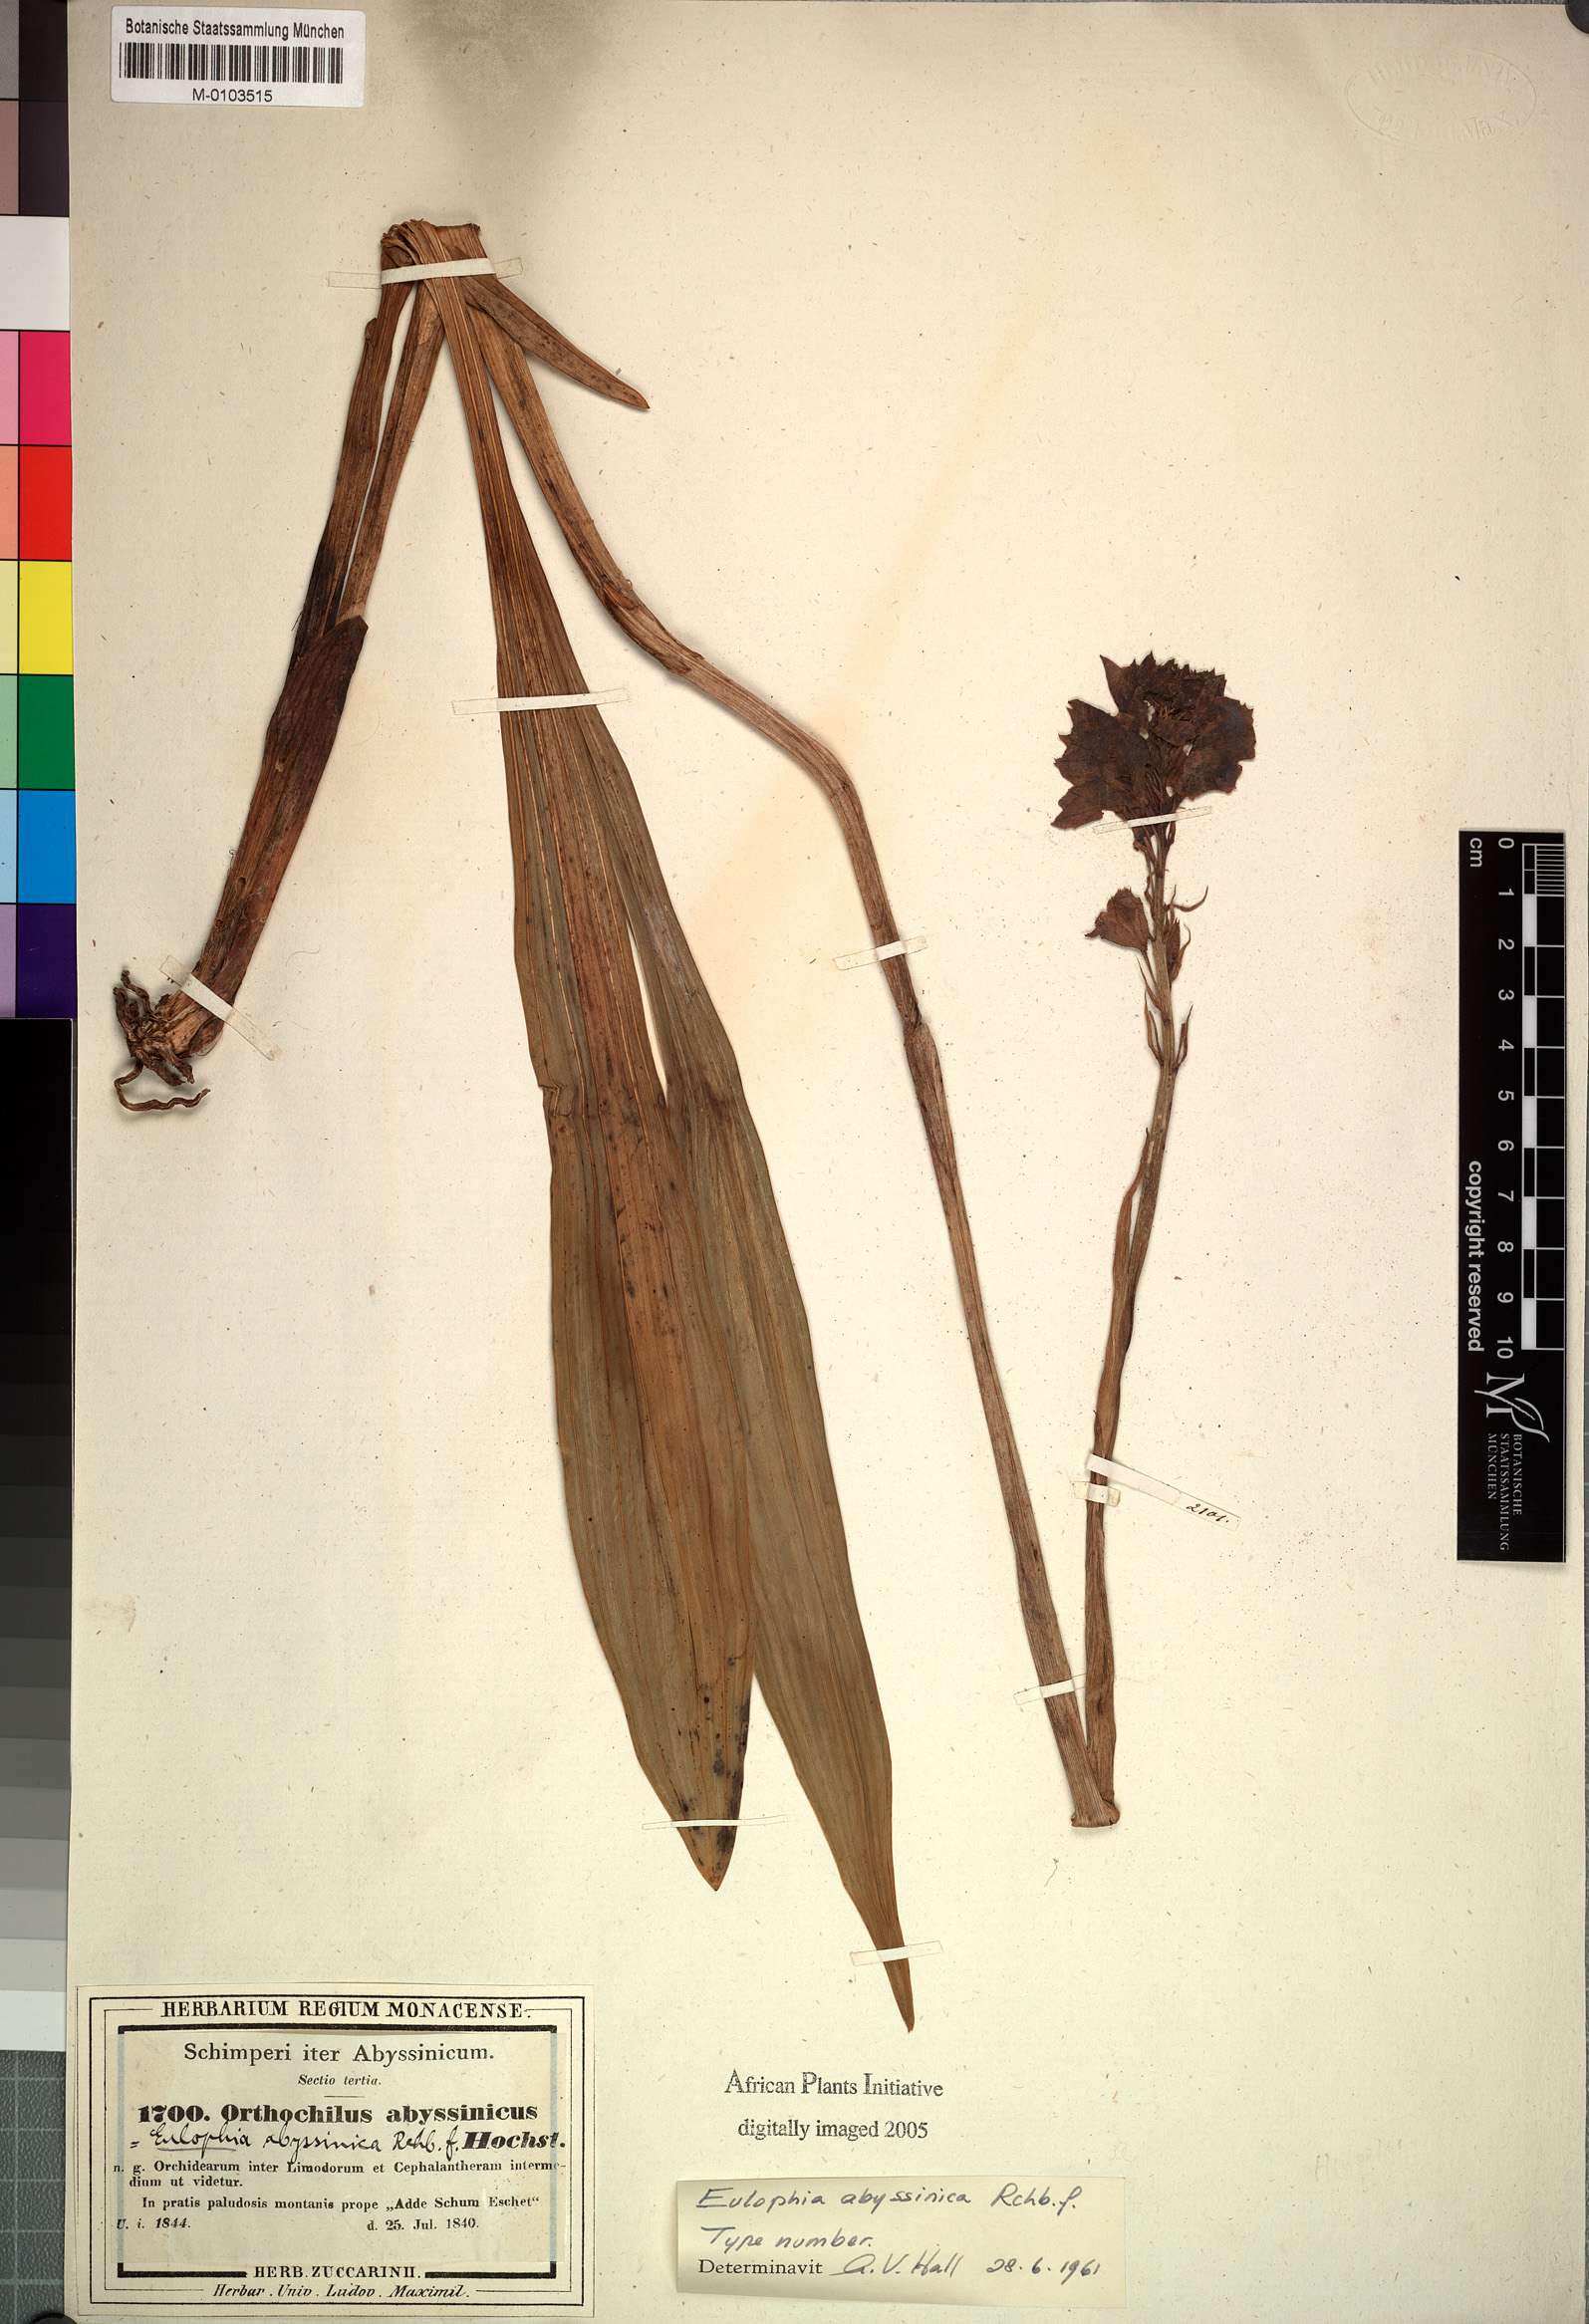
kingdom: Plantae
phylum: Tracheophyta
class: Liliopsida
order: Asparagales
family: Orchidaceae
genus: Eulophia
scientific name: Eulophia abyssinica
